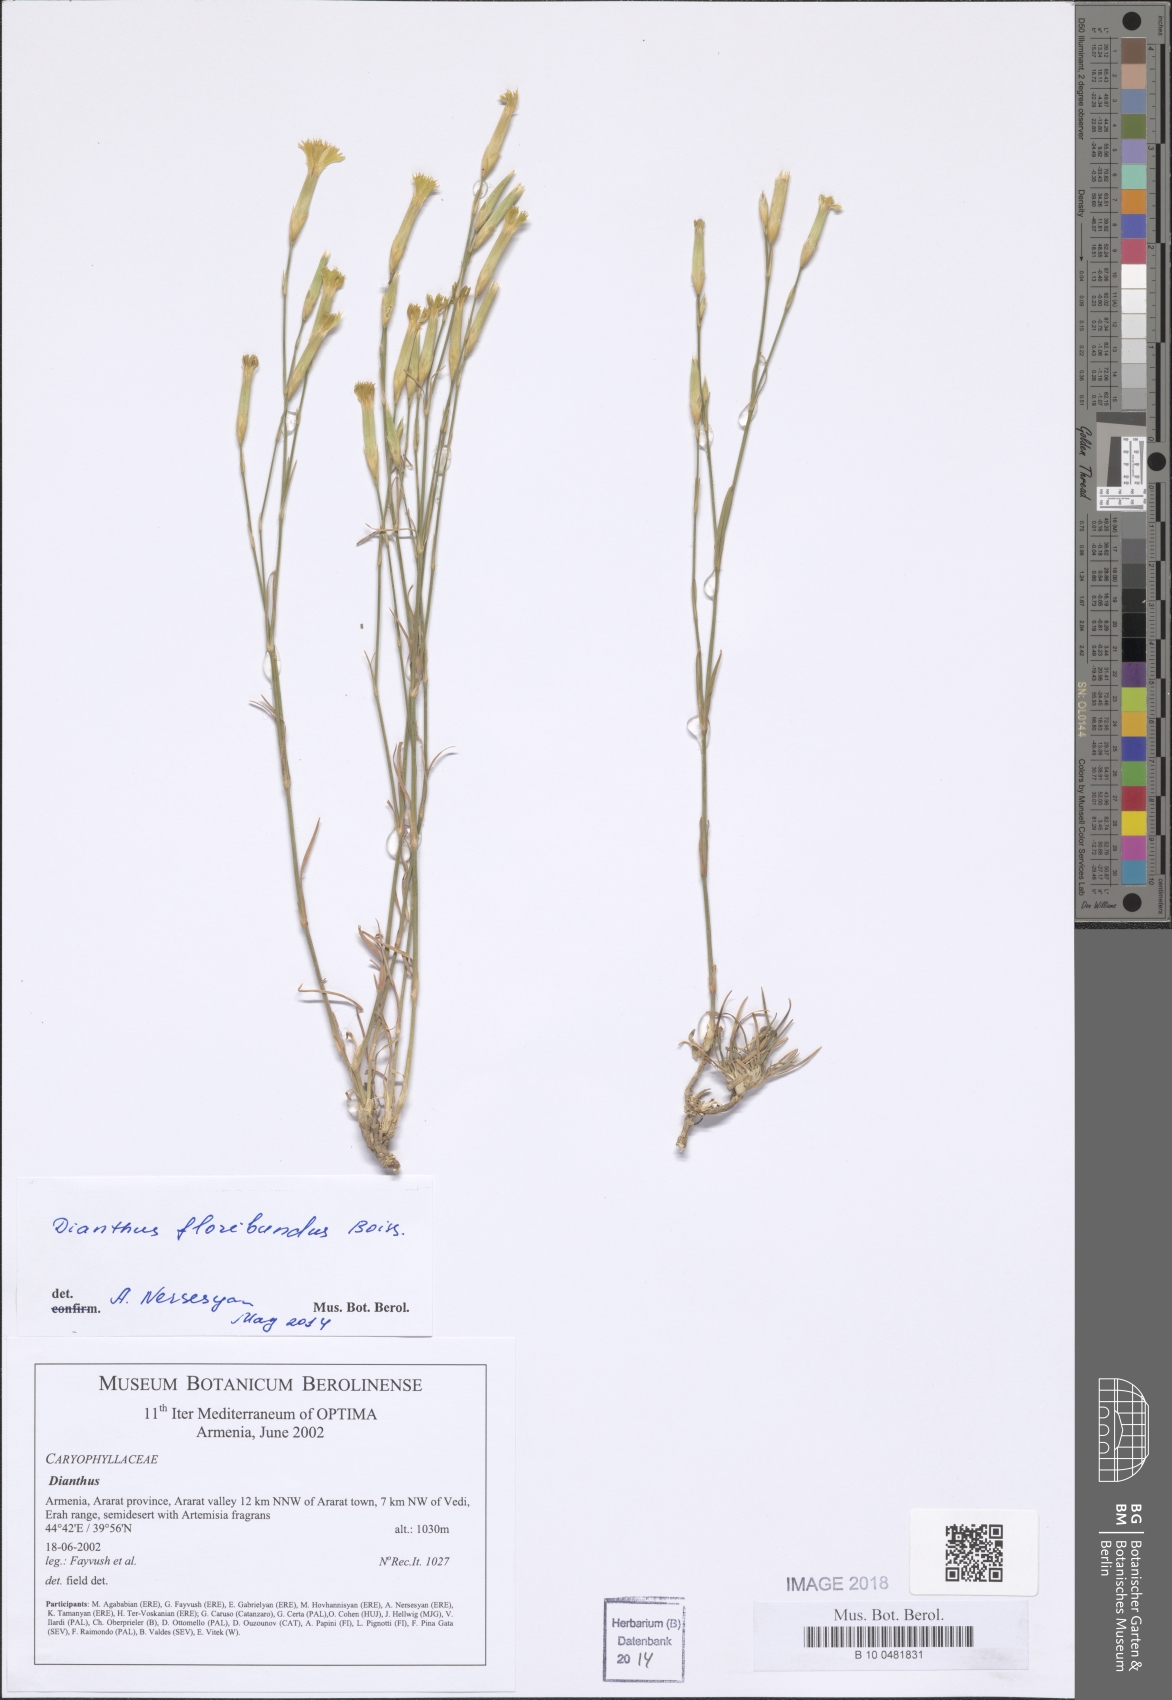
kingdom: Plantae
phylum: Tracheophyta
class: Magnoliopsida
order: Caryophyllales
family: Caryophyllaceae
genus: Dianthus
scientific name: Dianthus
